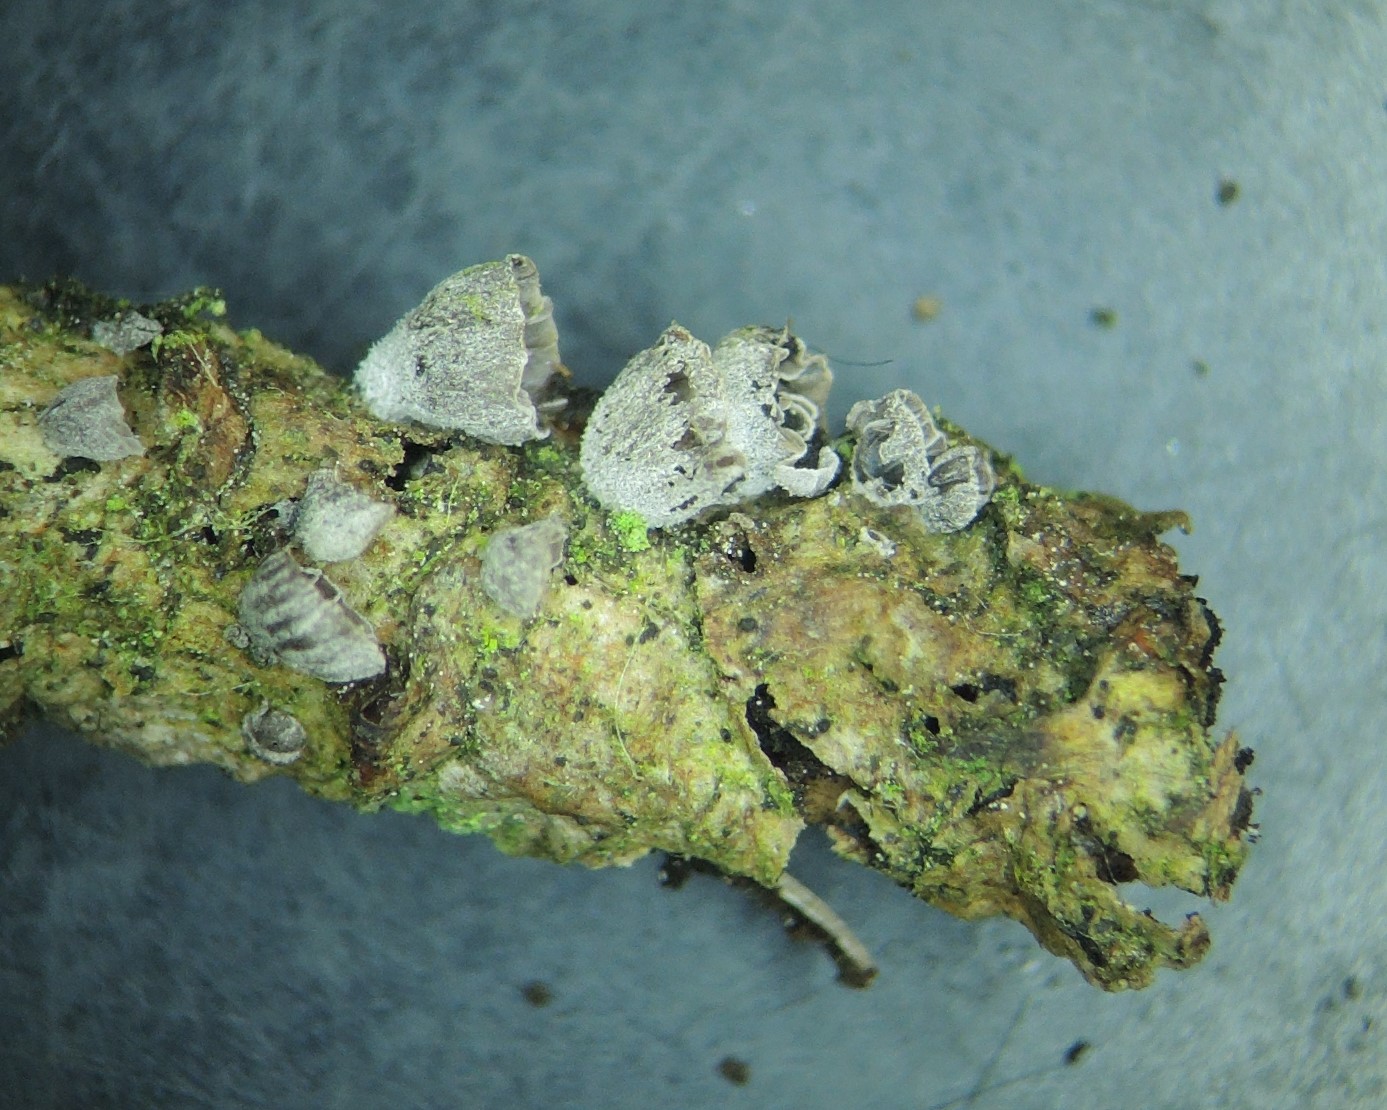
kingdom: Fungi
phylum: Basidiomycota
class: Agaricomycetes
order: Agaricales
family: Pleurotaceae
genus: Resupinatus
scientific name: Resupinatus applicatus
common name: lysfiltet barkhat
